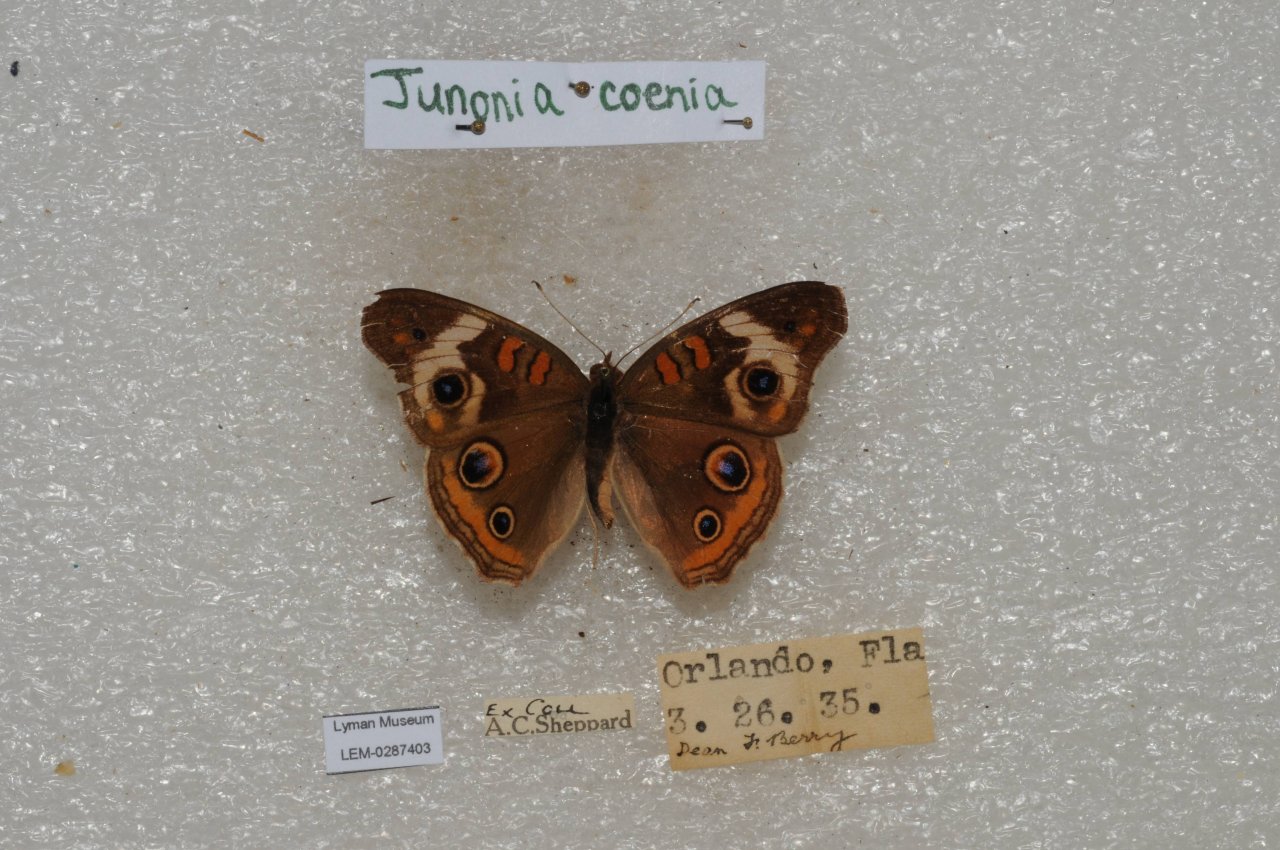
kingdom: Animalia
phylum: Arthropoda
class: Insecta
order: Lepidoptera
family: Nymphalidae
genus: Junonia
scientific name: Junonia coenia
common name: Common Buckeye
